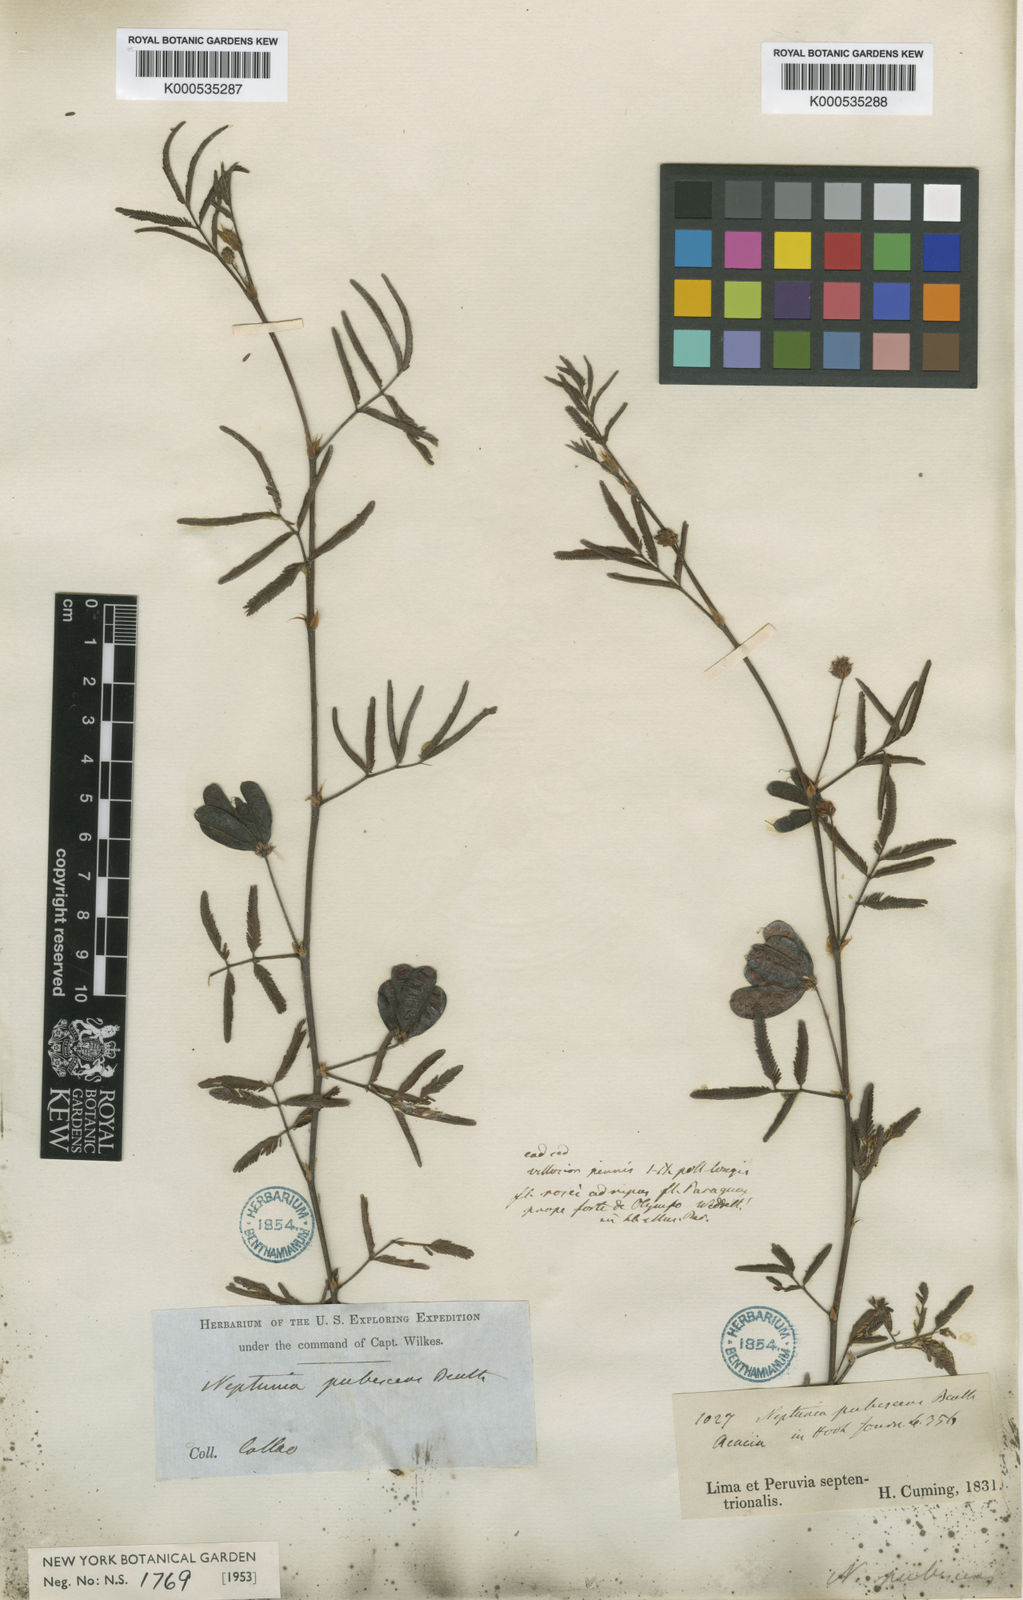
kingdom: Plantae
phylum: Tracheophyta
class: Magnoliopsida
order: Fabales
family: Fabaceae
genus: Neptunia
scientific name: Neptunia pubescens
